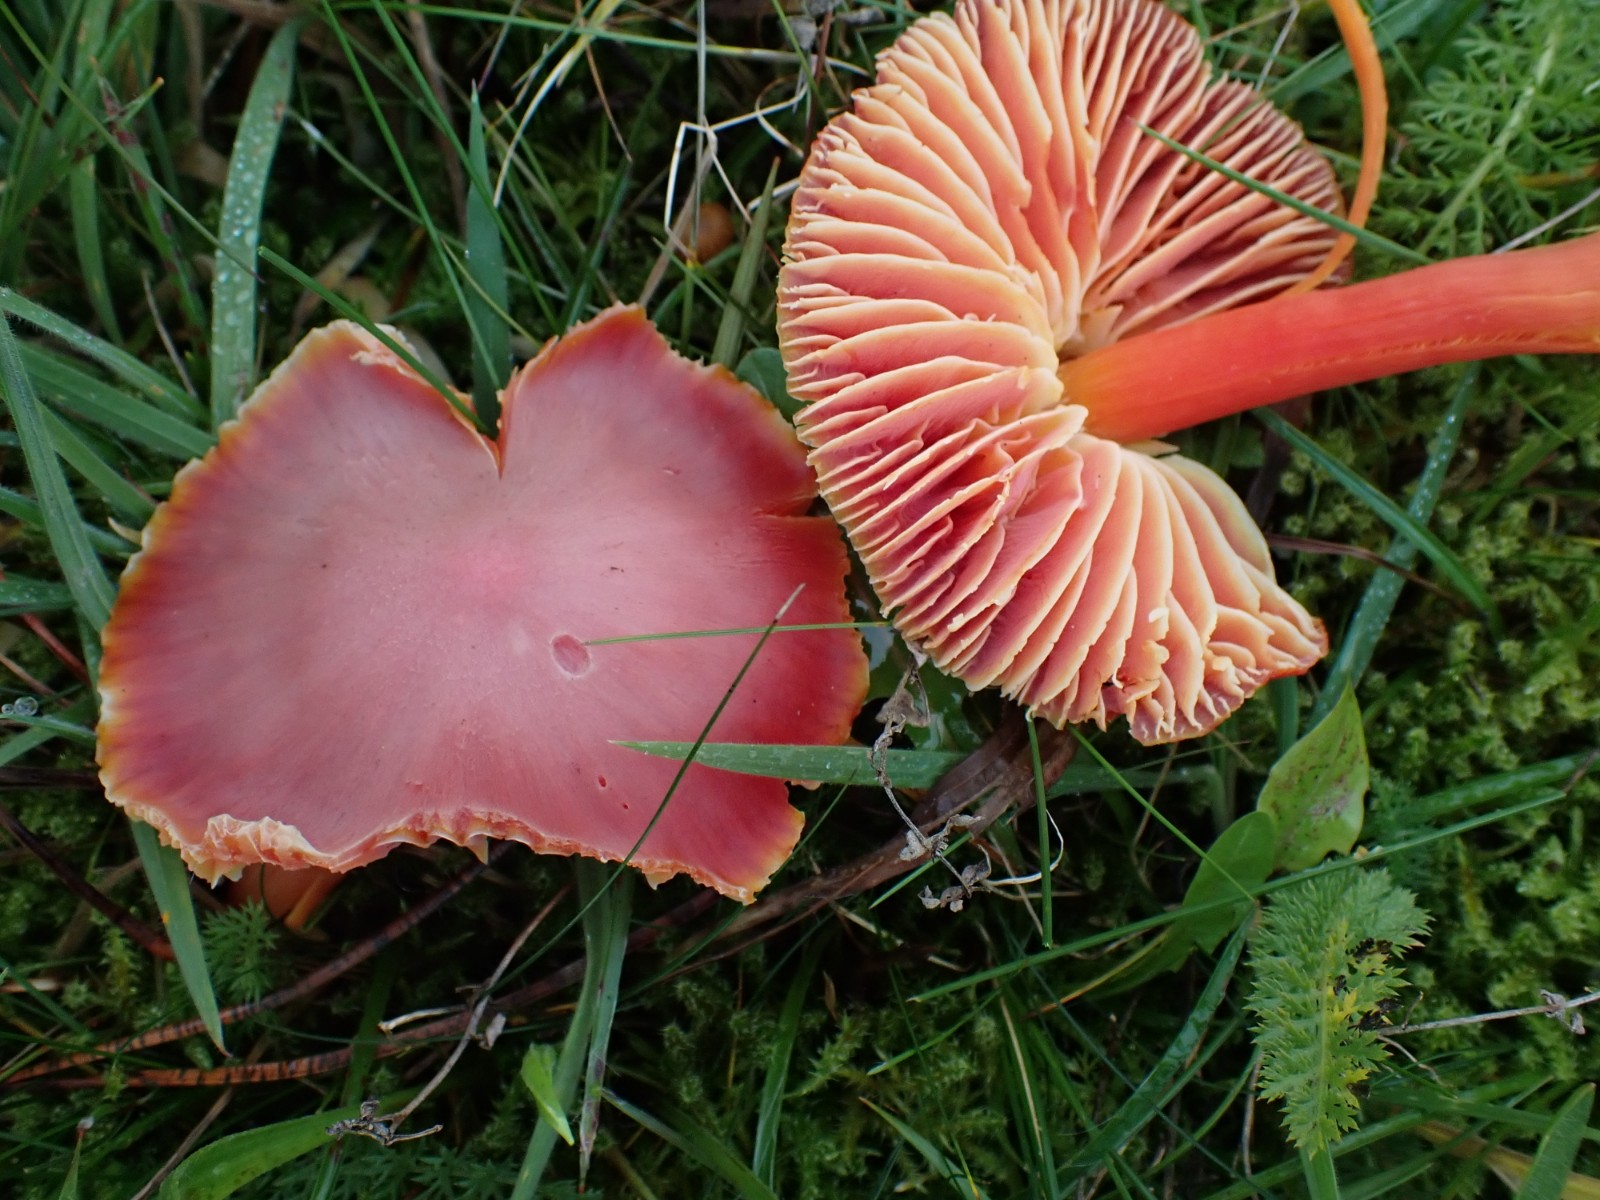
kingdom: Fungi
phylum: Basidiomycota
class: Agaricomycetes
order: Agaricales
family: Hygrophoraceae
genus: Hygrocybe
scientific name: Hygrocybe coccinea
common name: cinnober-vokshat
